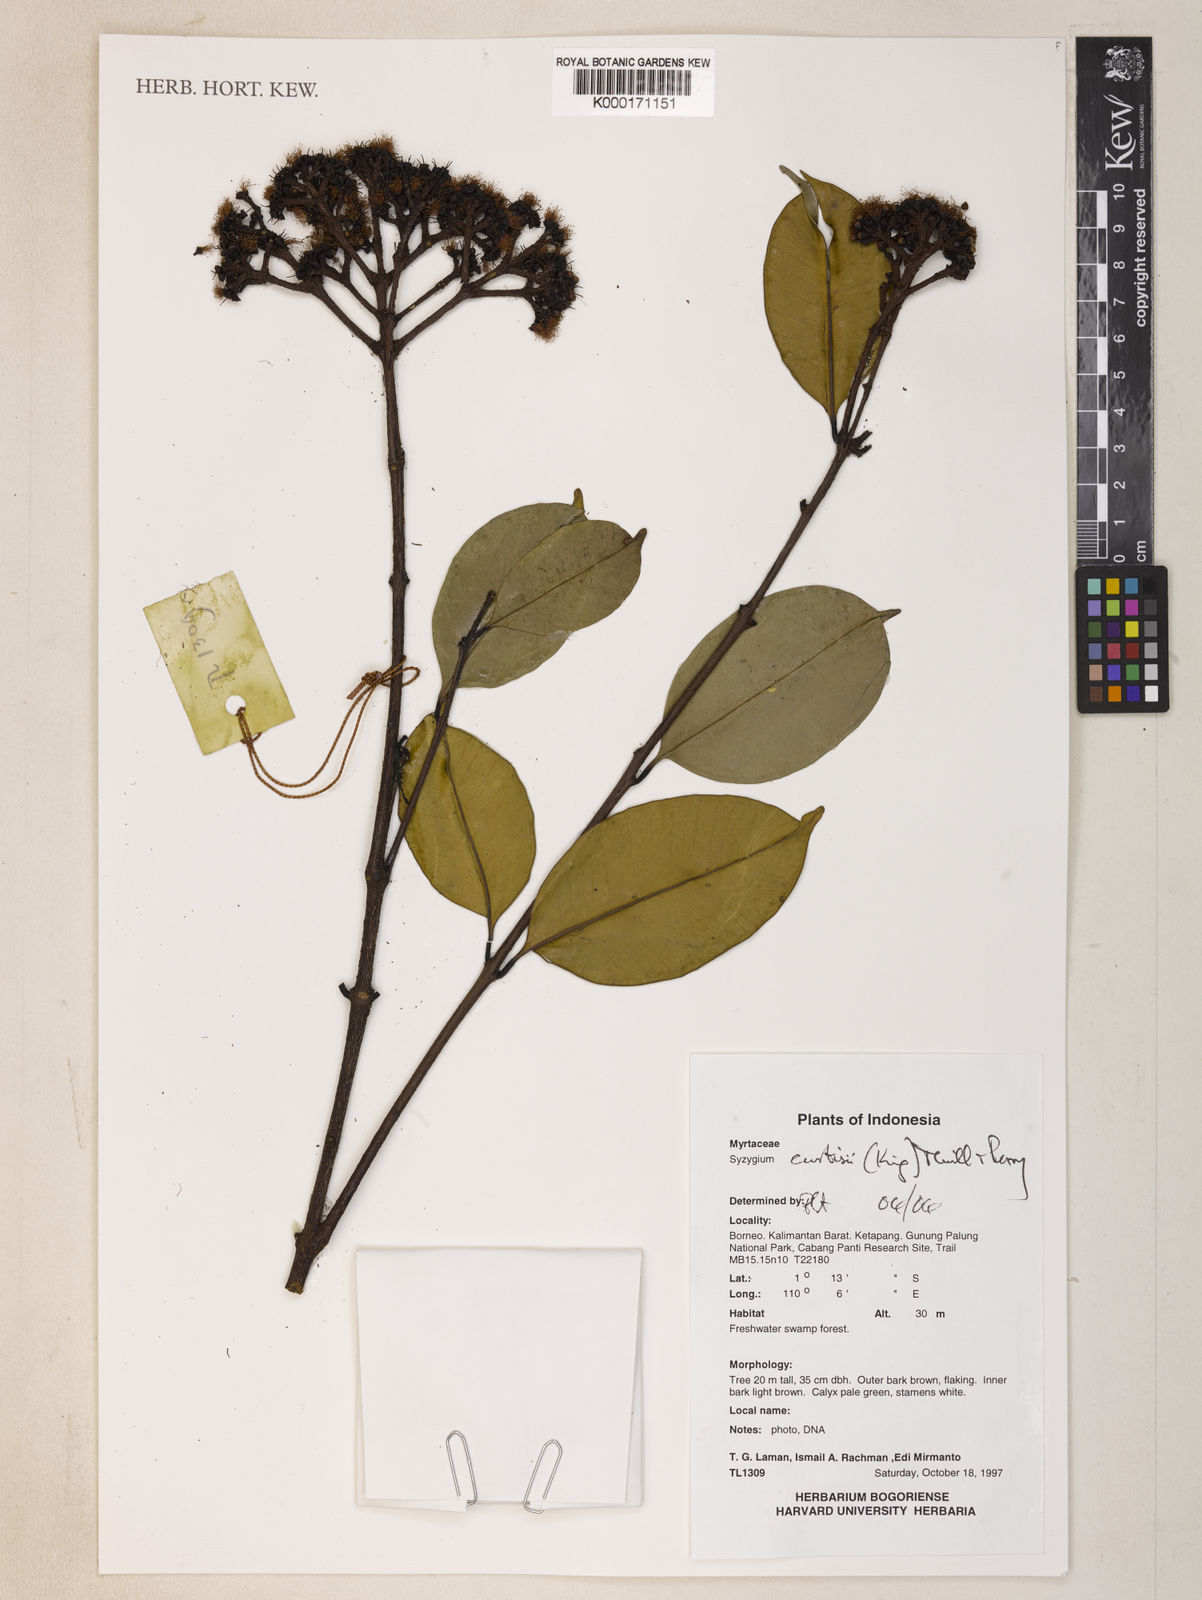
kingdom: Plantae
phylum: Tracheophyta
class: Magnoliopsida
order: Myrtales
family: Myrtaceae
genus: Syzygium
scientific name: Syzygium curtisii
